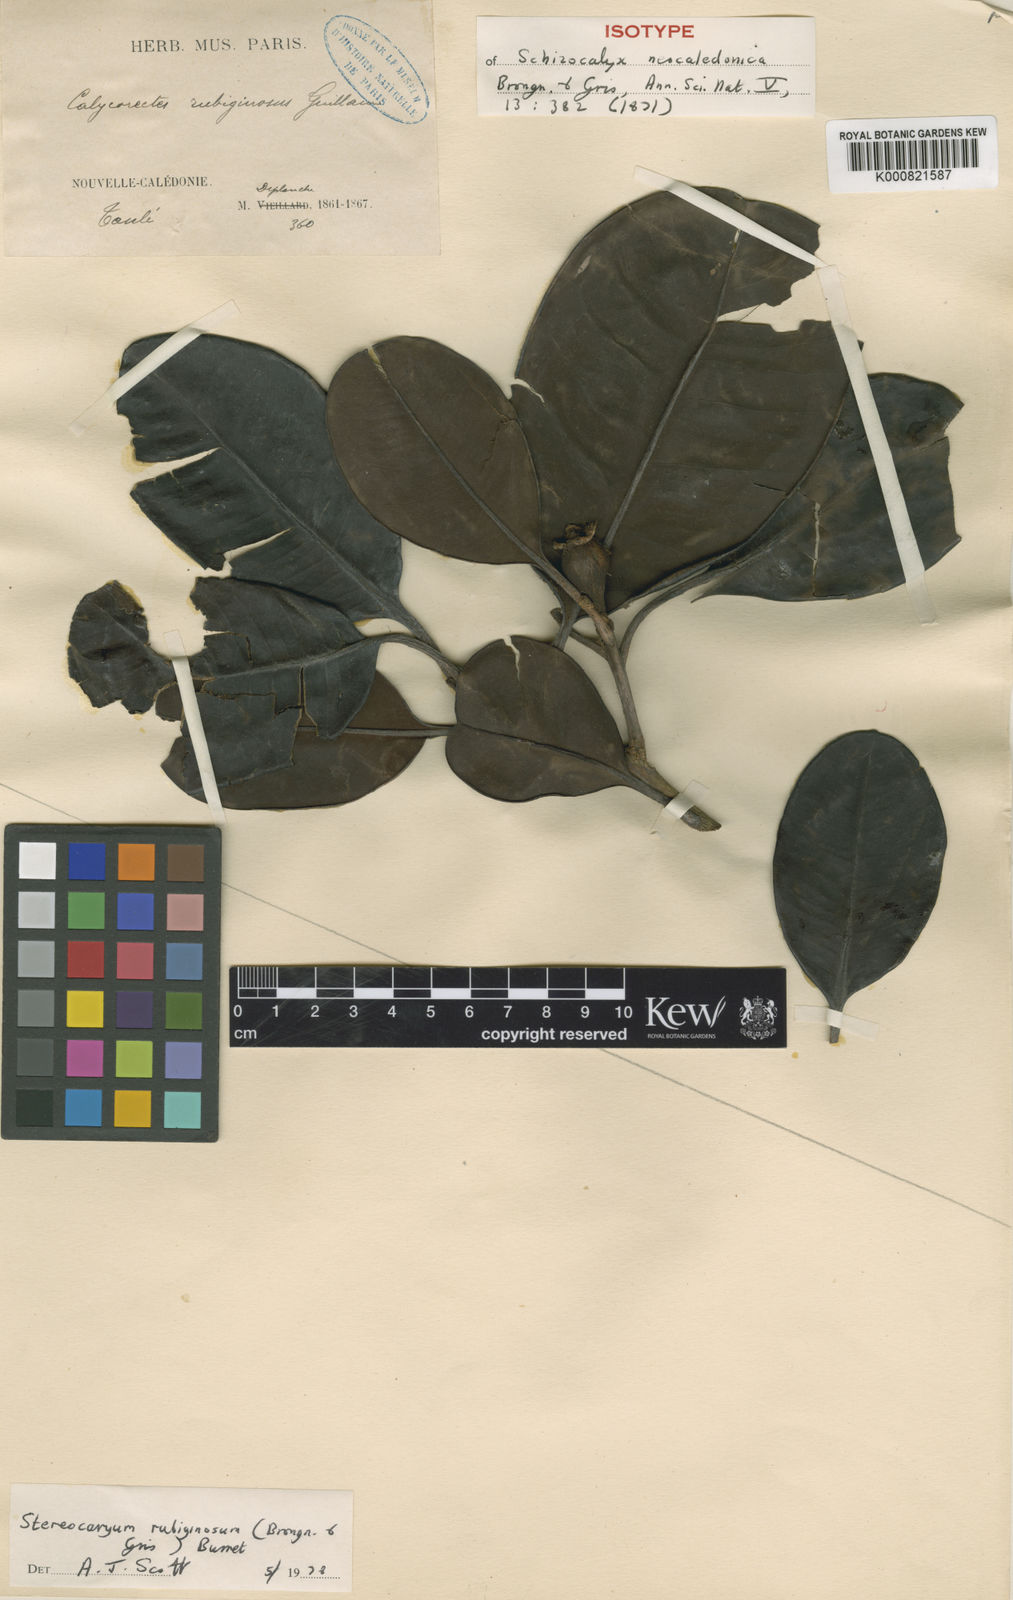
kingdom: Plantae
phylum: Tracheophyta
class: Magnoliopsida
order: Myrtales
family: Myrtaceae
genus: Stereocaryum
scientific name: Stereocaryum ovigerum
